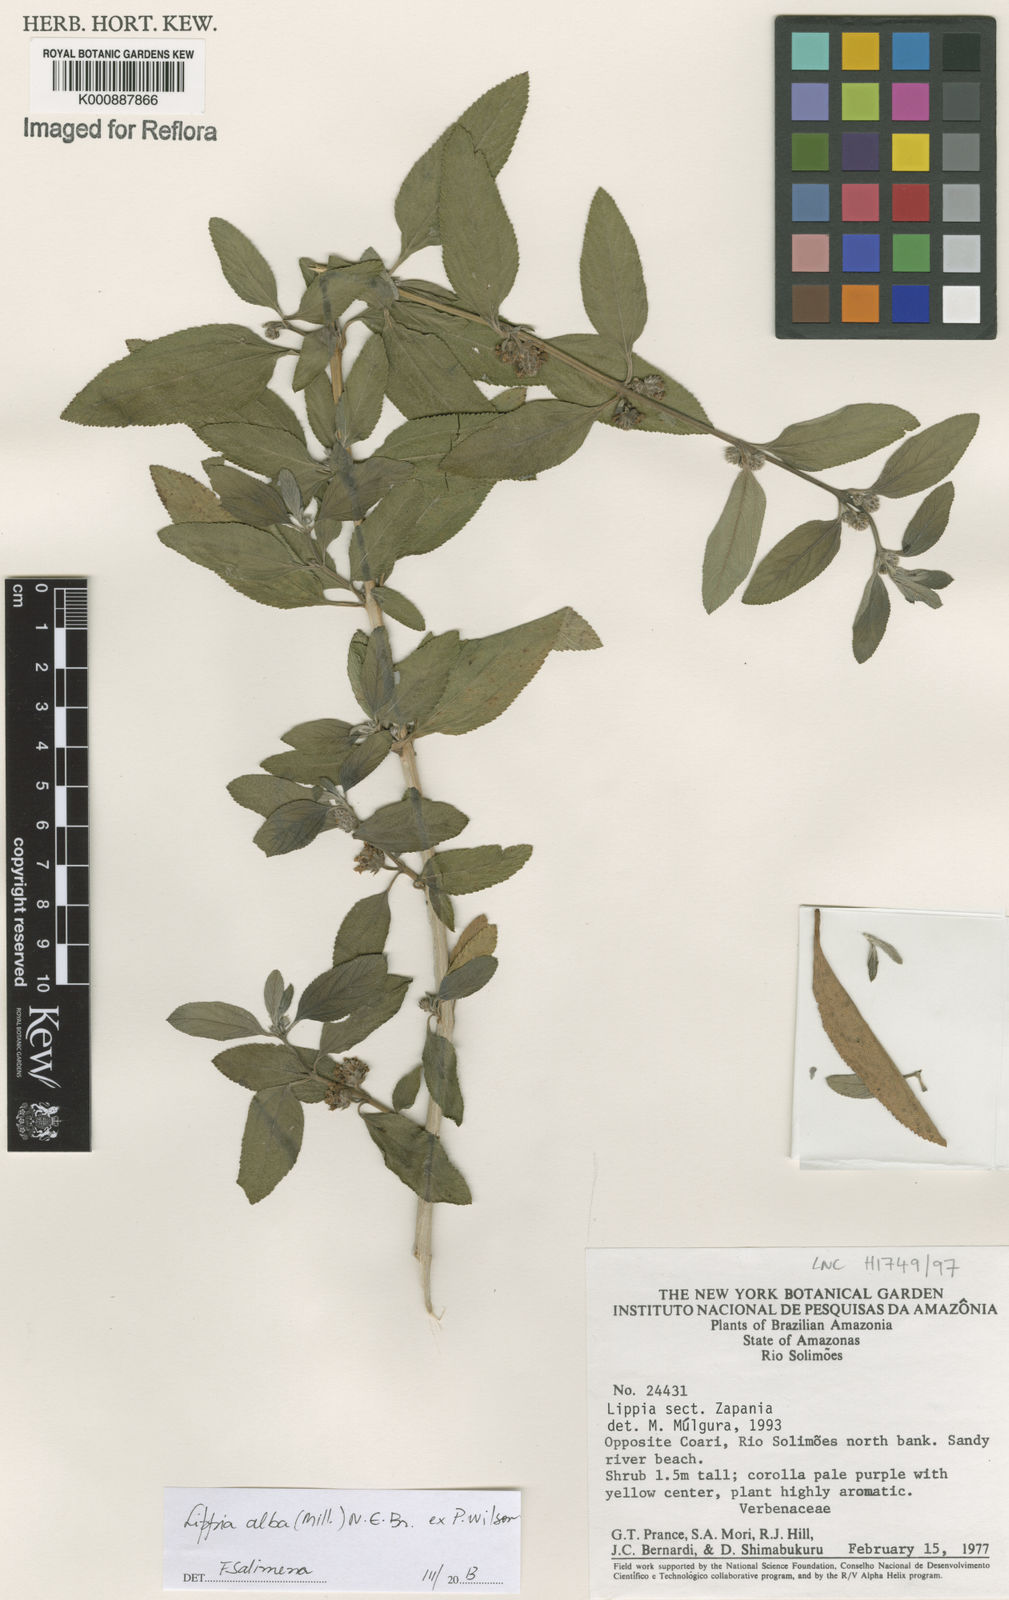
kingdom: Plantae
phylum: Tracheophyta
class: Magnoliopsida
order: Lamiales
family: Verbenaceae
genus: Lippia
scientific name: Lippia
